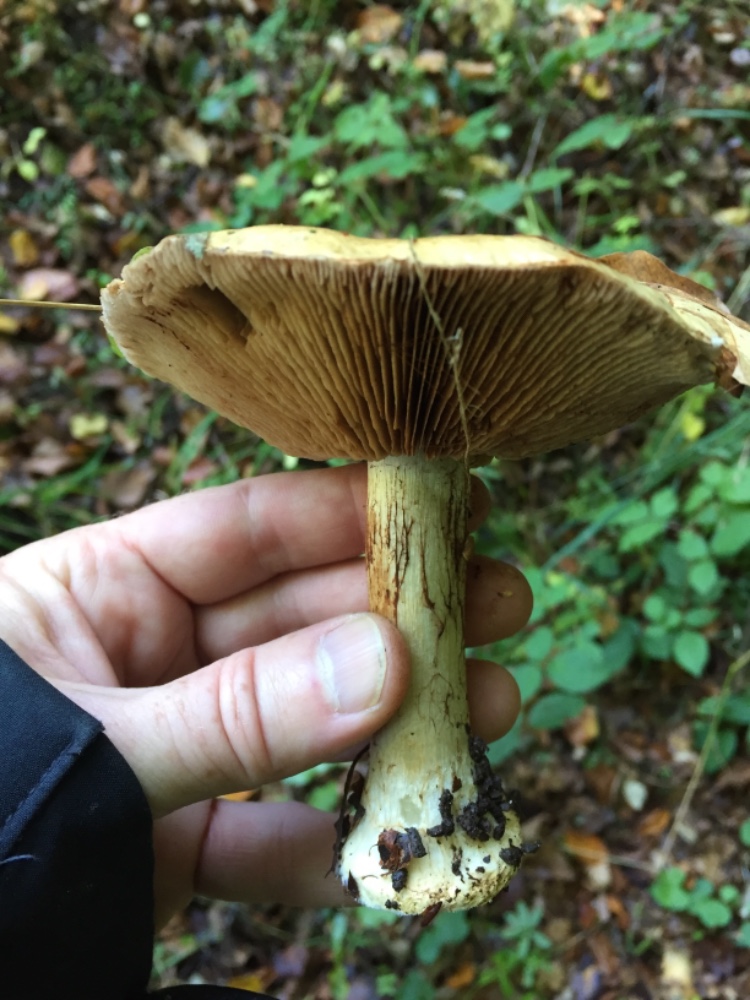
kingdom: Fungi
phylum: Basidiomycota
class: Agaricomycetes
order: Agaricales
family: Cortinariaceae
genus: Cortinarius
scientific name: Cortinarius anserinus
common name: bøge-slørhat
